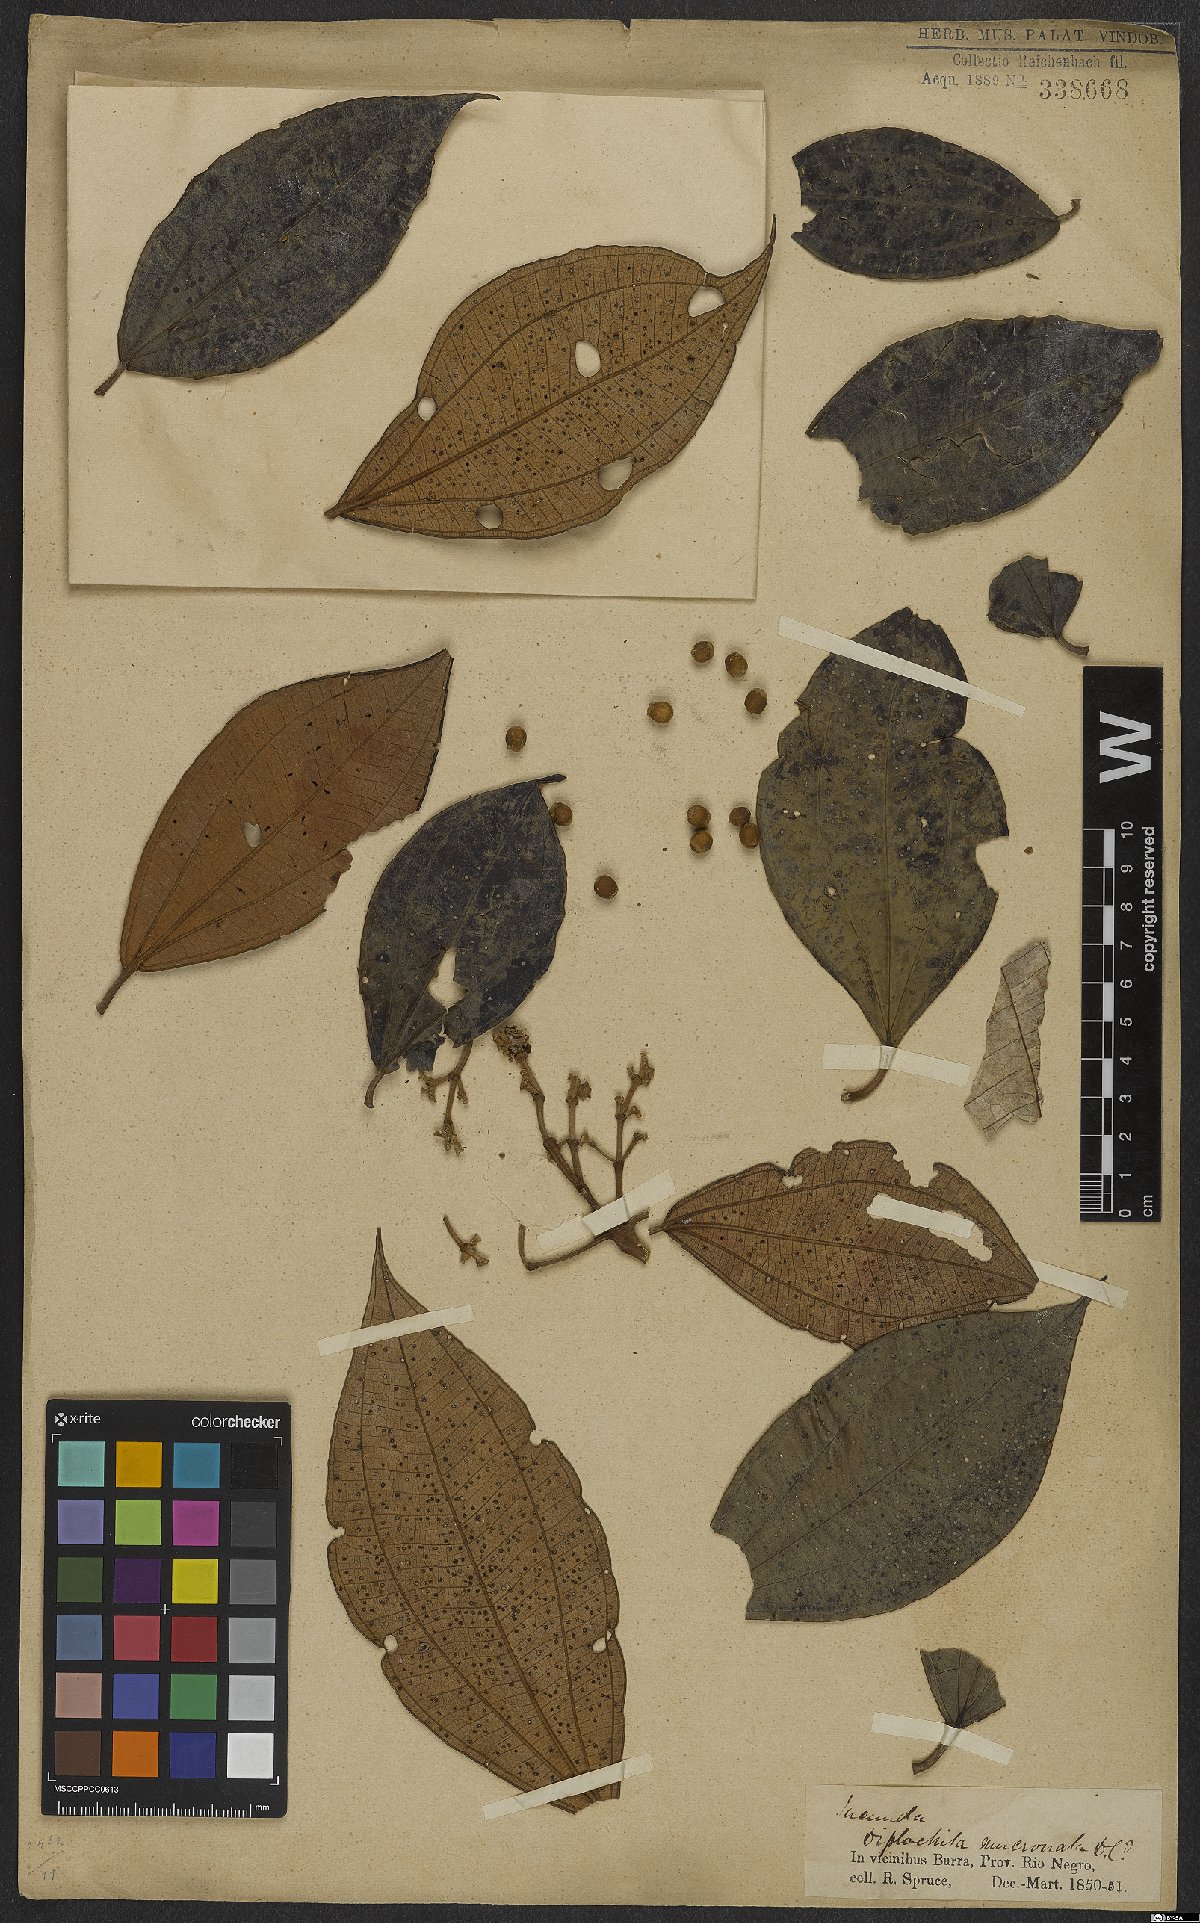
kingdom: Plantae
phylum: Tracheophyta
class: Magnoliopsida
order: Myrtales
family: Melastomataceae
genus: Miconia
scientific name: Miconia holosericea
